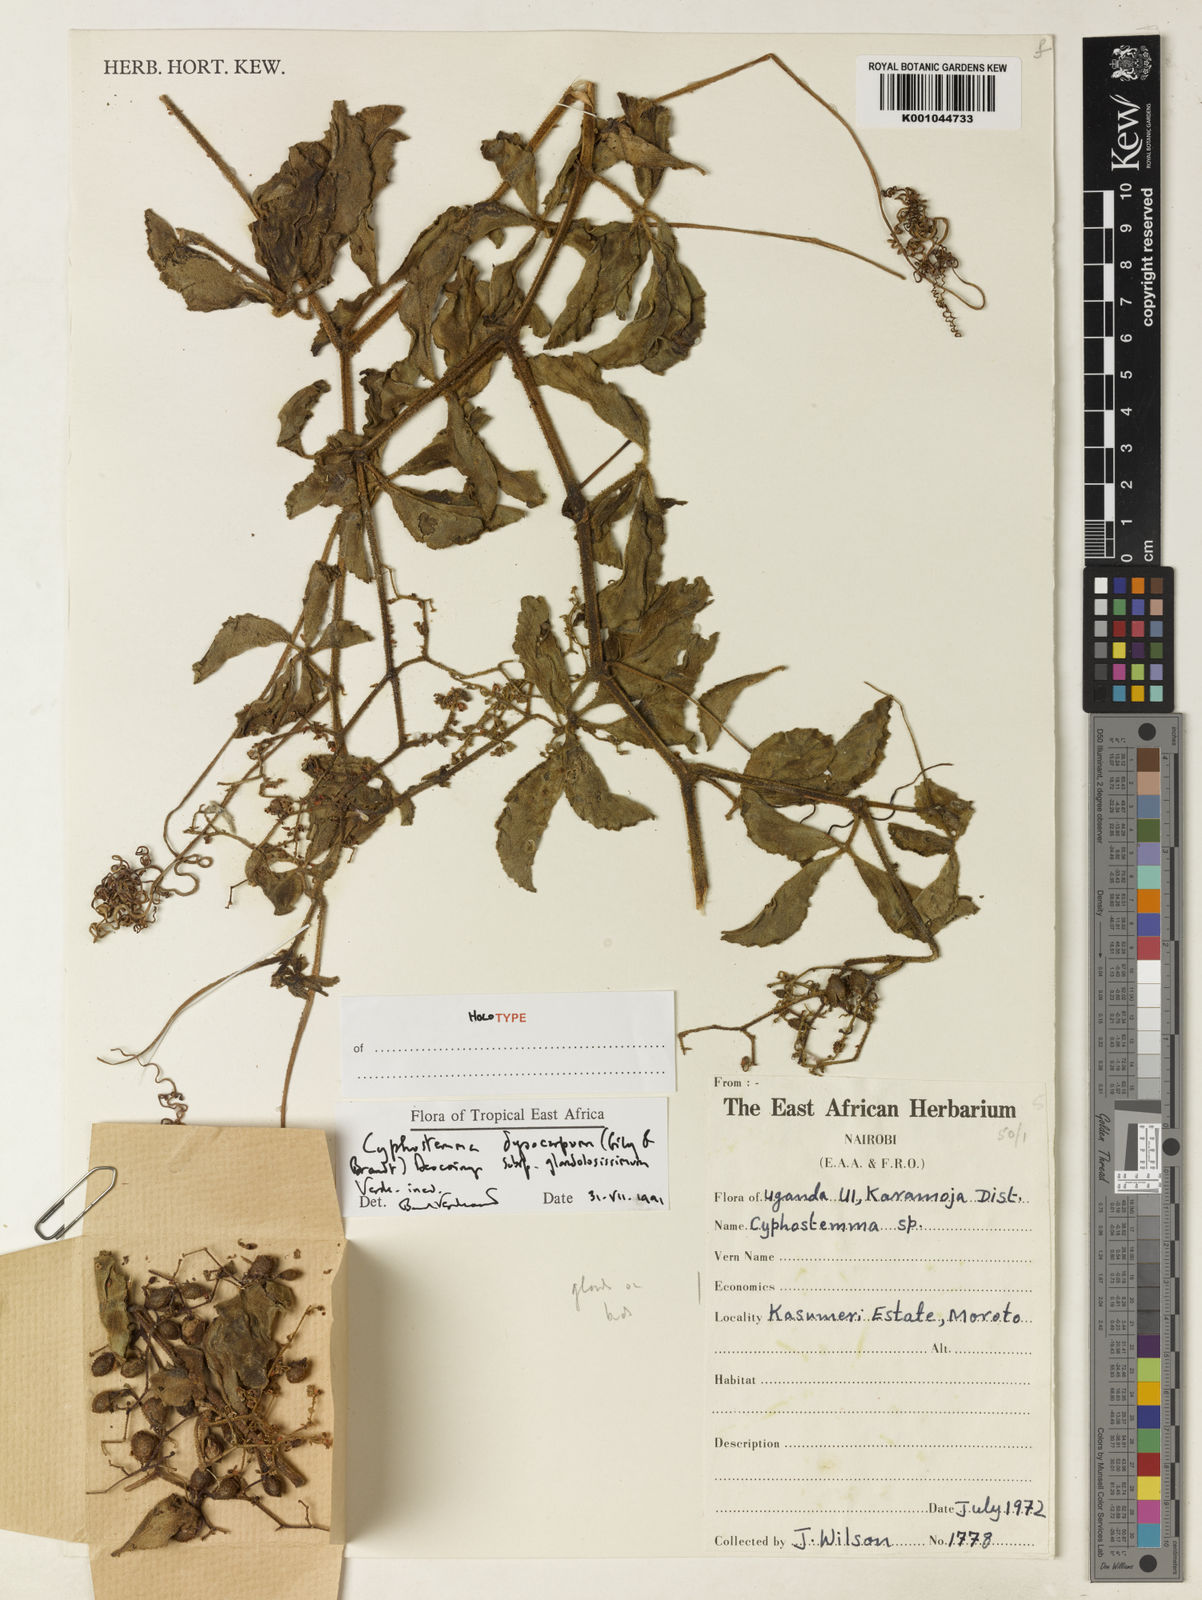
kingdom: Plantae
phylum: Tracheophyta
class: Magnoliopsida
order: Vitales
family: Vitaceae
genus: Cyphostemma
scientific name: Cyphostemma dysocarpum
